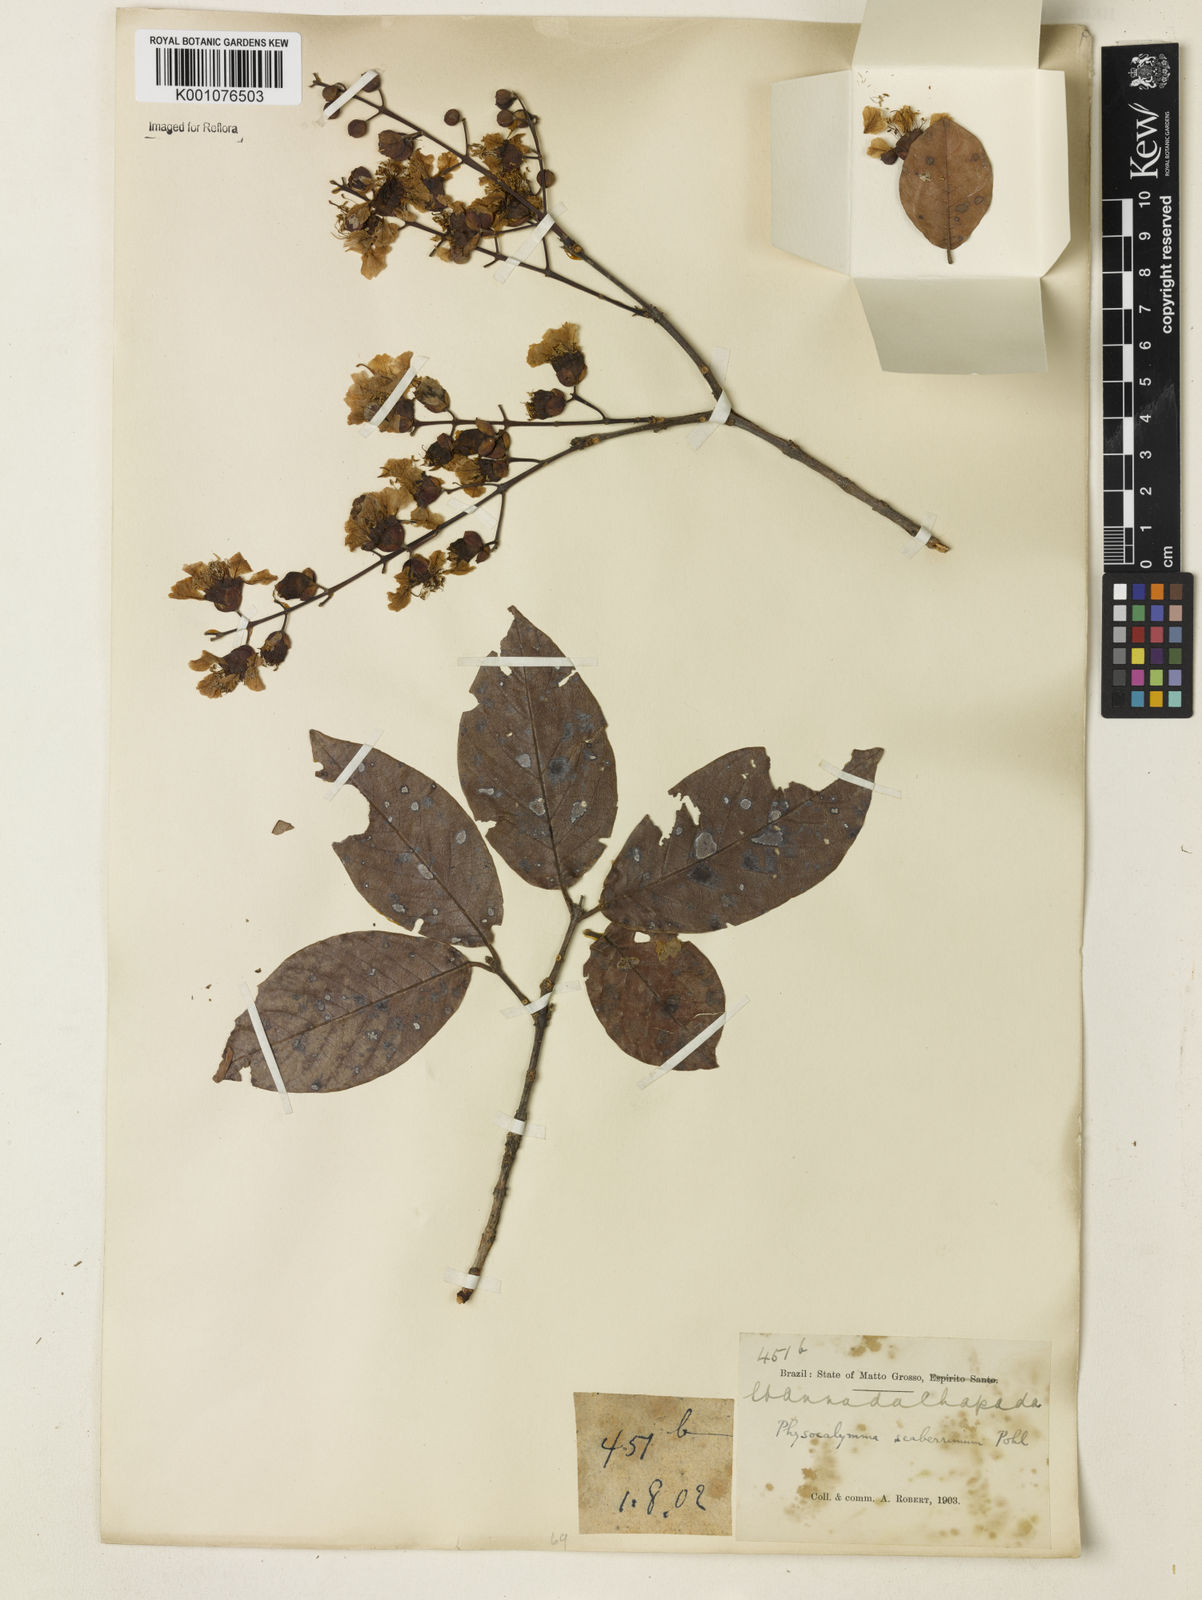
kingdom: Plantae
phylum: Tracheophyta
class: Magnoliopsida
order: Myrtales
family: Lythraceae
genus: Physocalymma
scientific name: Physocalymma scaberrimum
